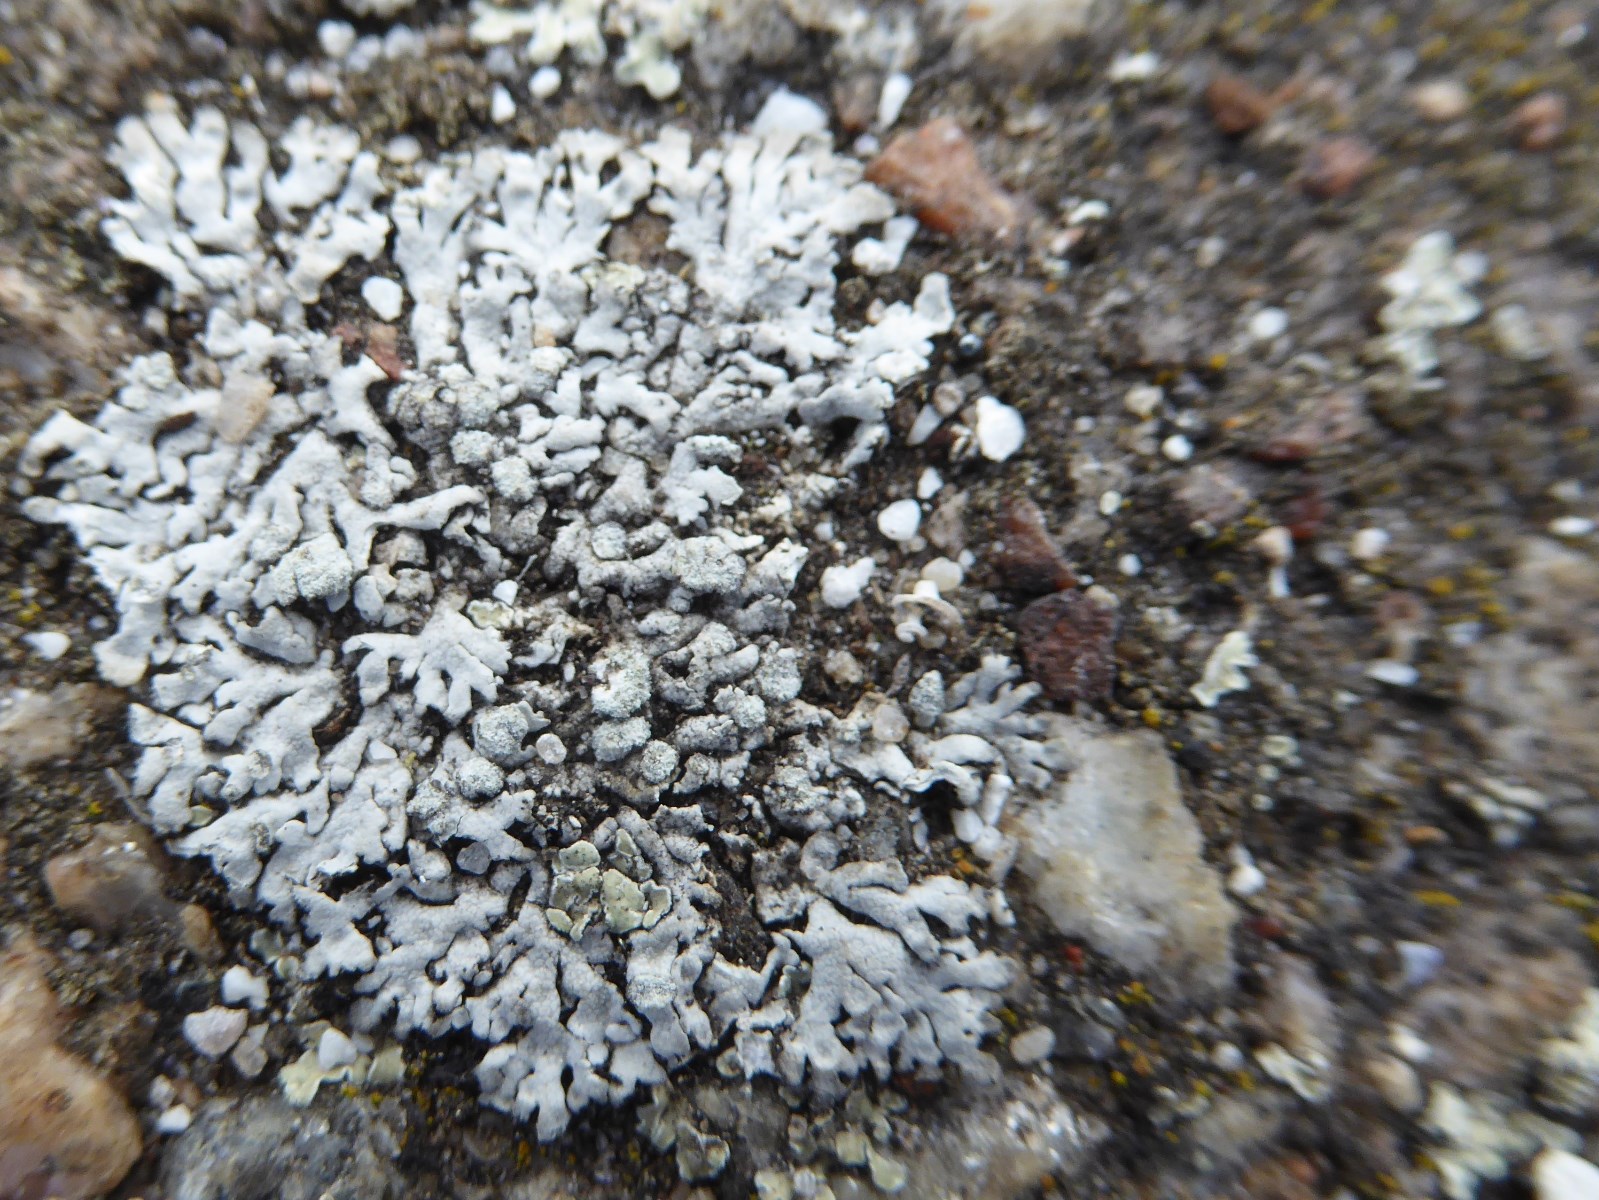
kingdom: Fungi
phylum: Ascomycota
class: Lecanoromycetes
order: Caliciales
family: Physciaceae
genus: Physcia
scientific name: Physcia caesia
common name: blågrå rosetlav
